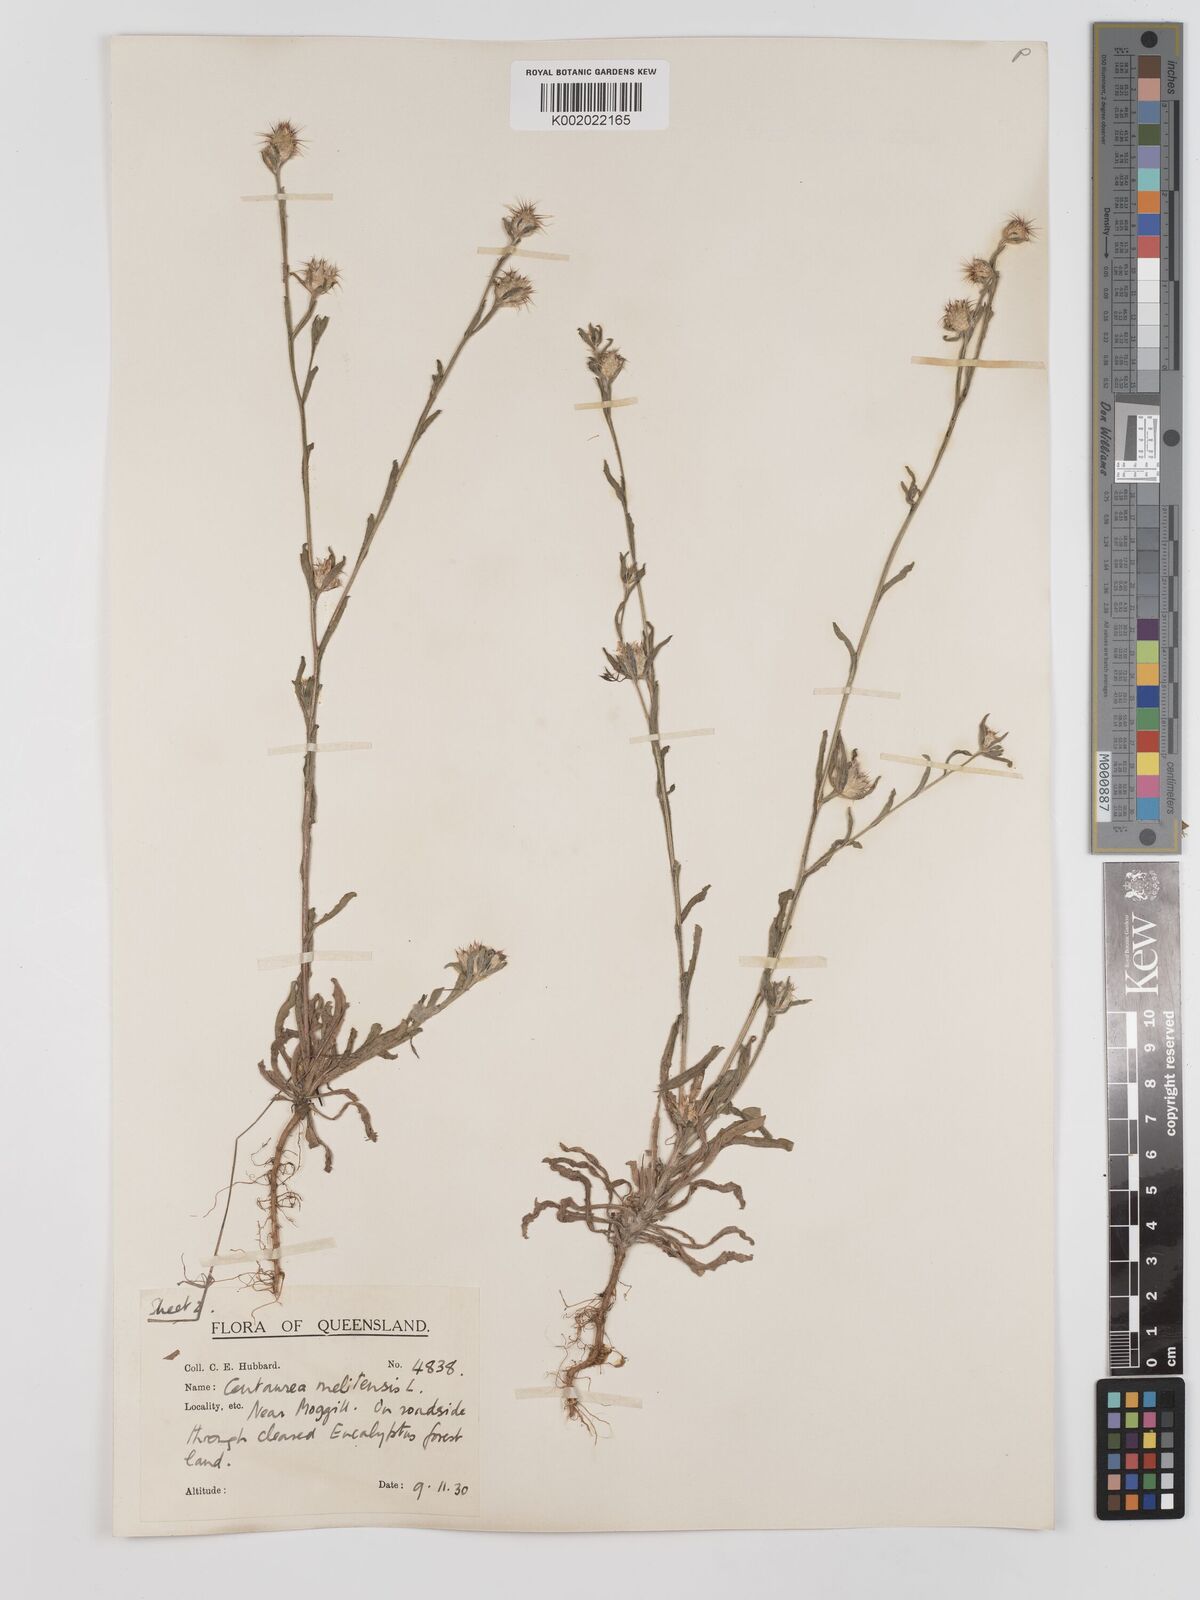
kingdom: Plantae
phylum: Tracheophyta
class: Magnoliopsida
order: Asterales
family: Asteraceae
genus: Centaurea
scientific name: Centaurea melitensis
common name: Maltese star-thistle
